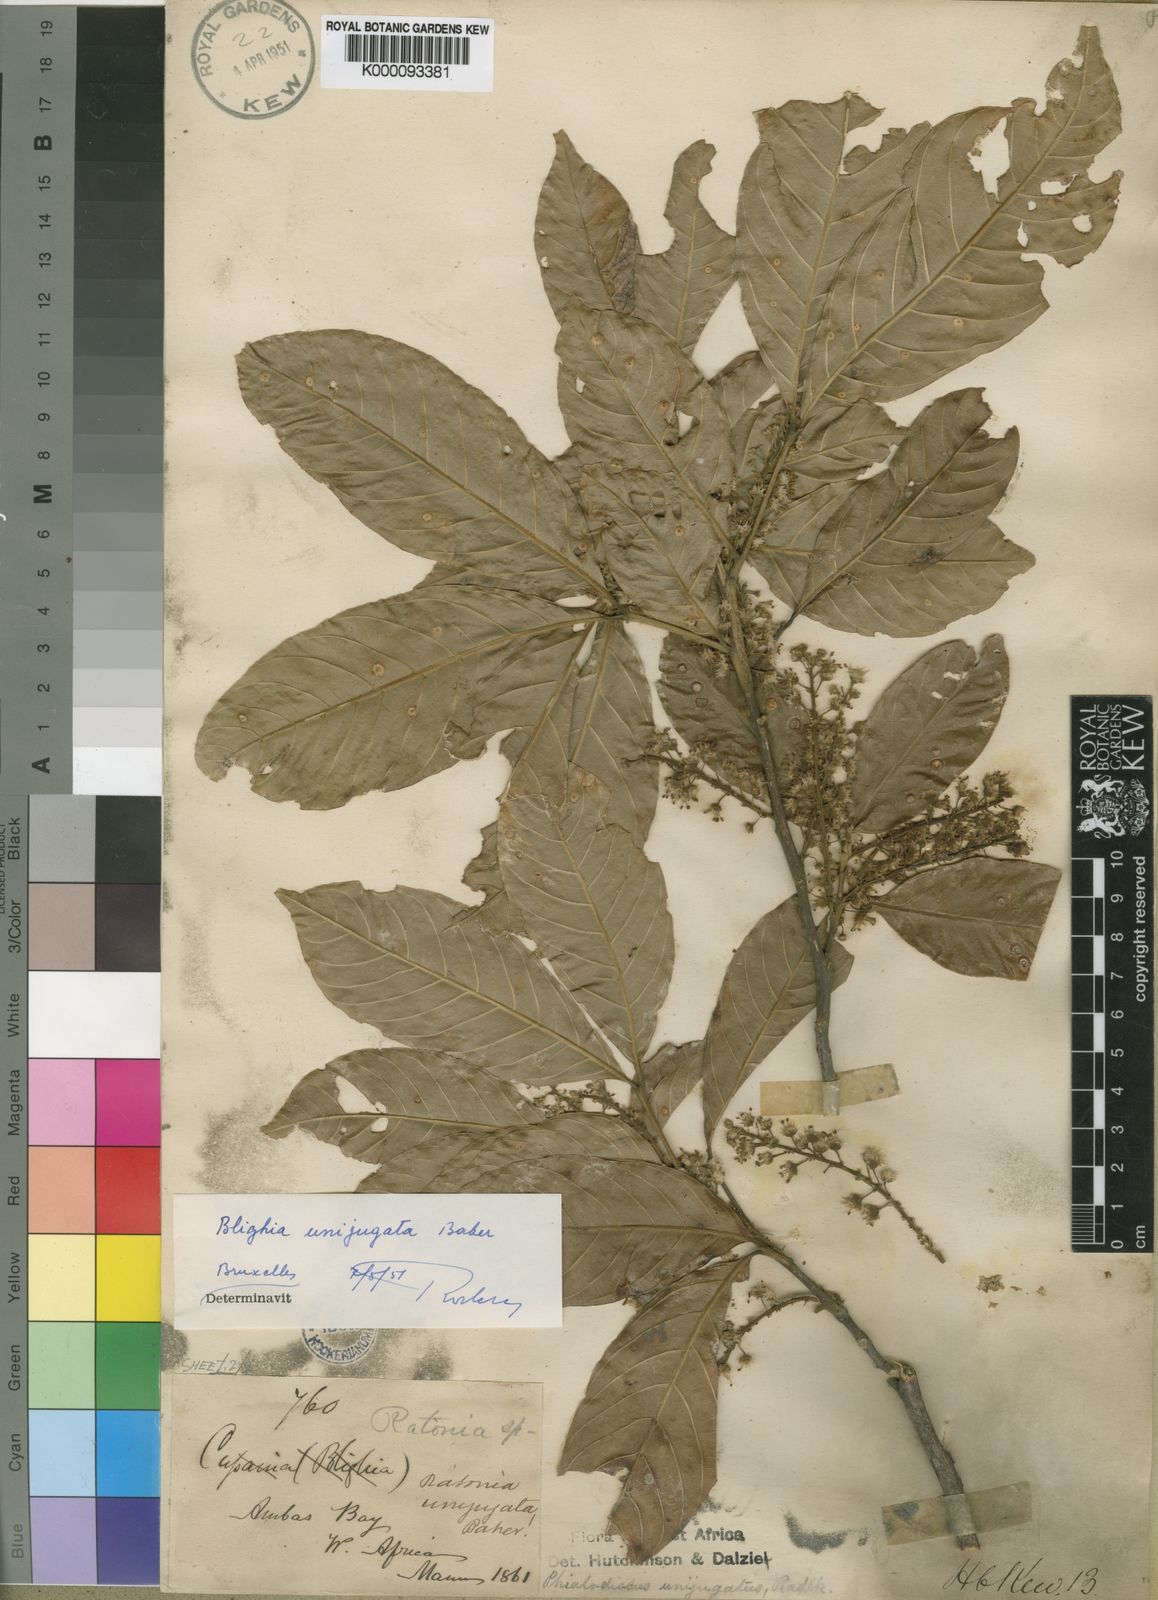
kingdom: Plantae
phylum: Tracheophyta
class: Magnoliopsida
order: Sapindales
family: Sapindaceae
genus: Blighia
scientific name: Blighia unijugata
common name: Triangle tops
